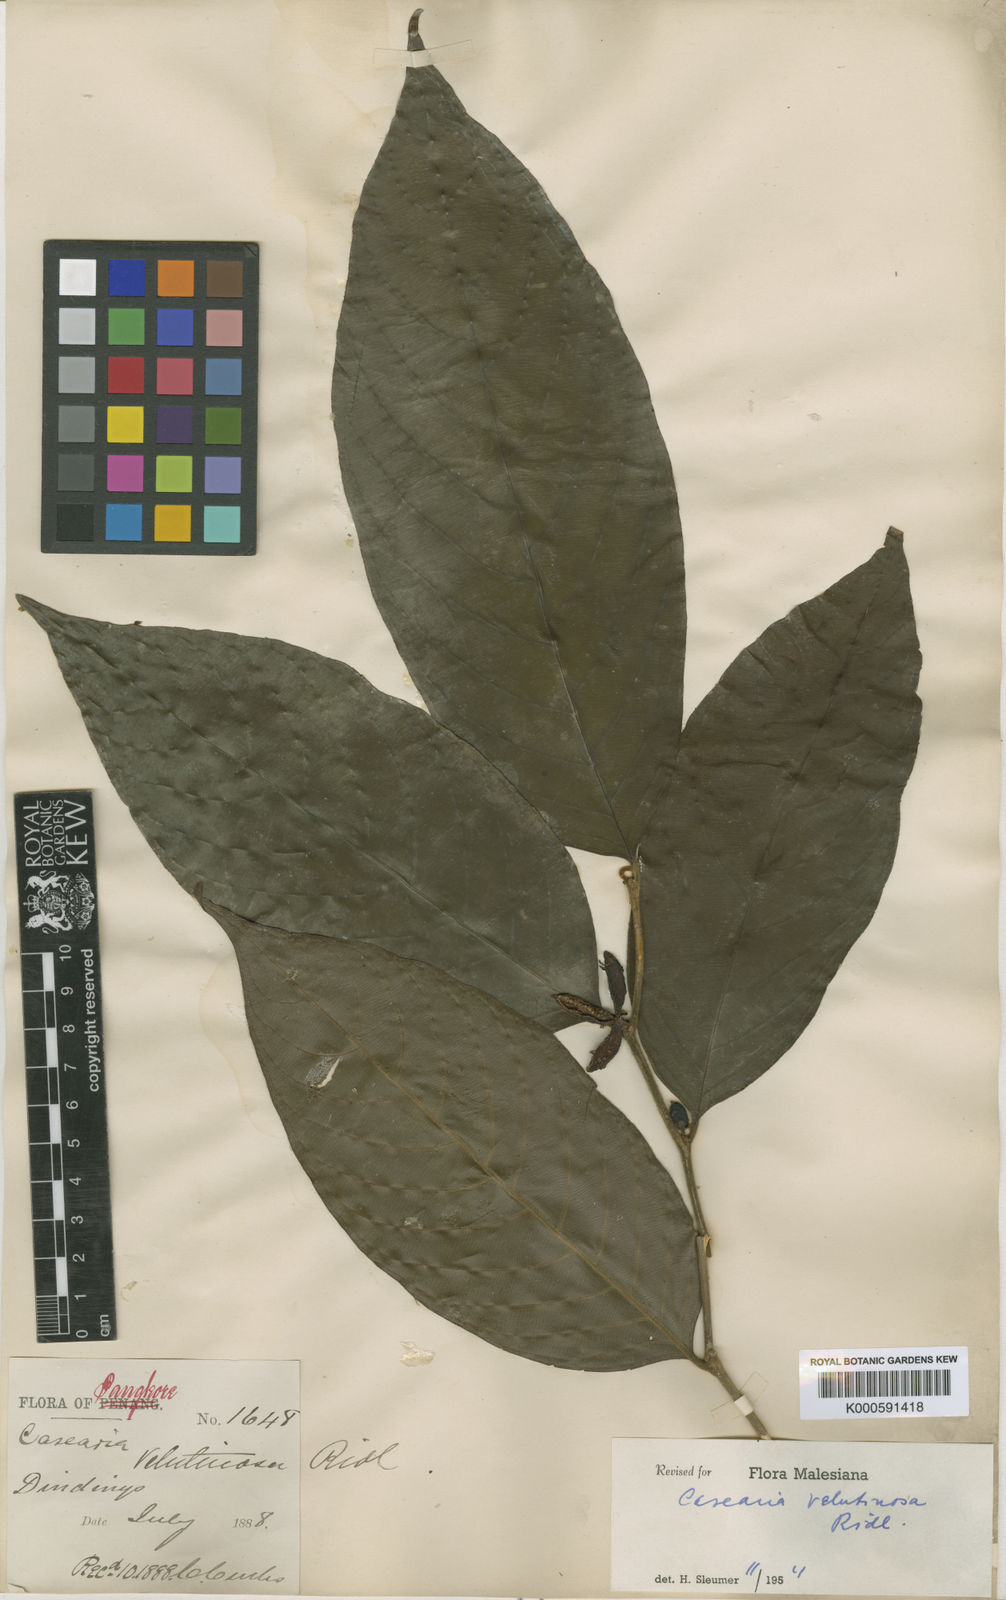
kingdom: Plantae
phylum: Tracheophyta
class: Magnoliopsida
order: Malpighiales
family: Salicaceae
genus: Casearia
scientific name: Casearia velutinosa
